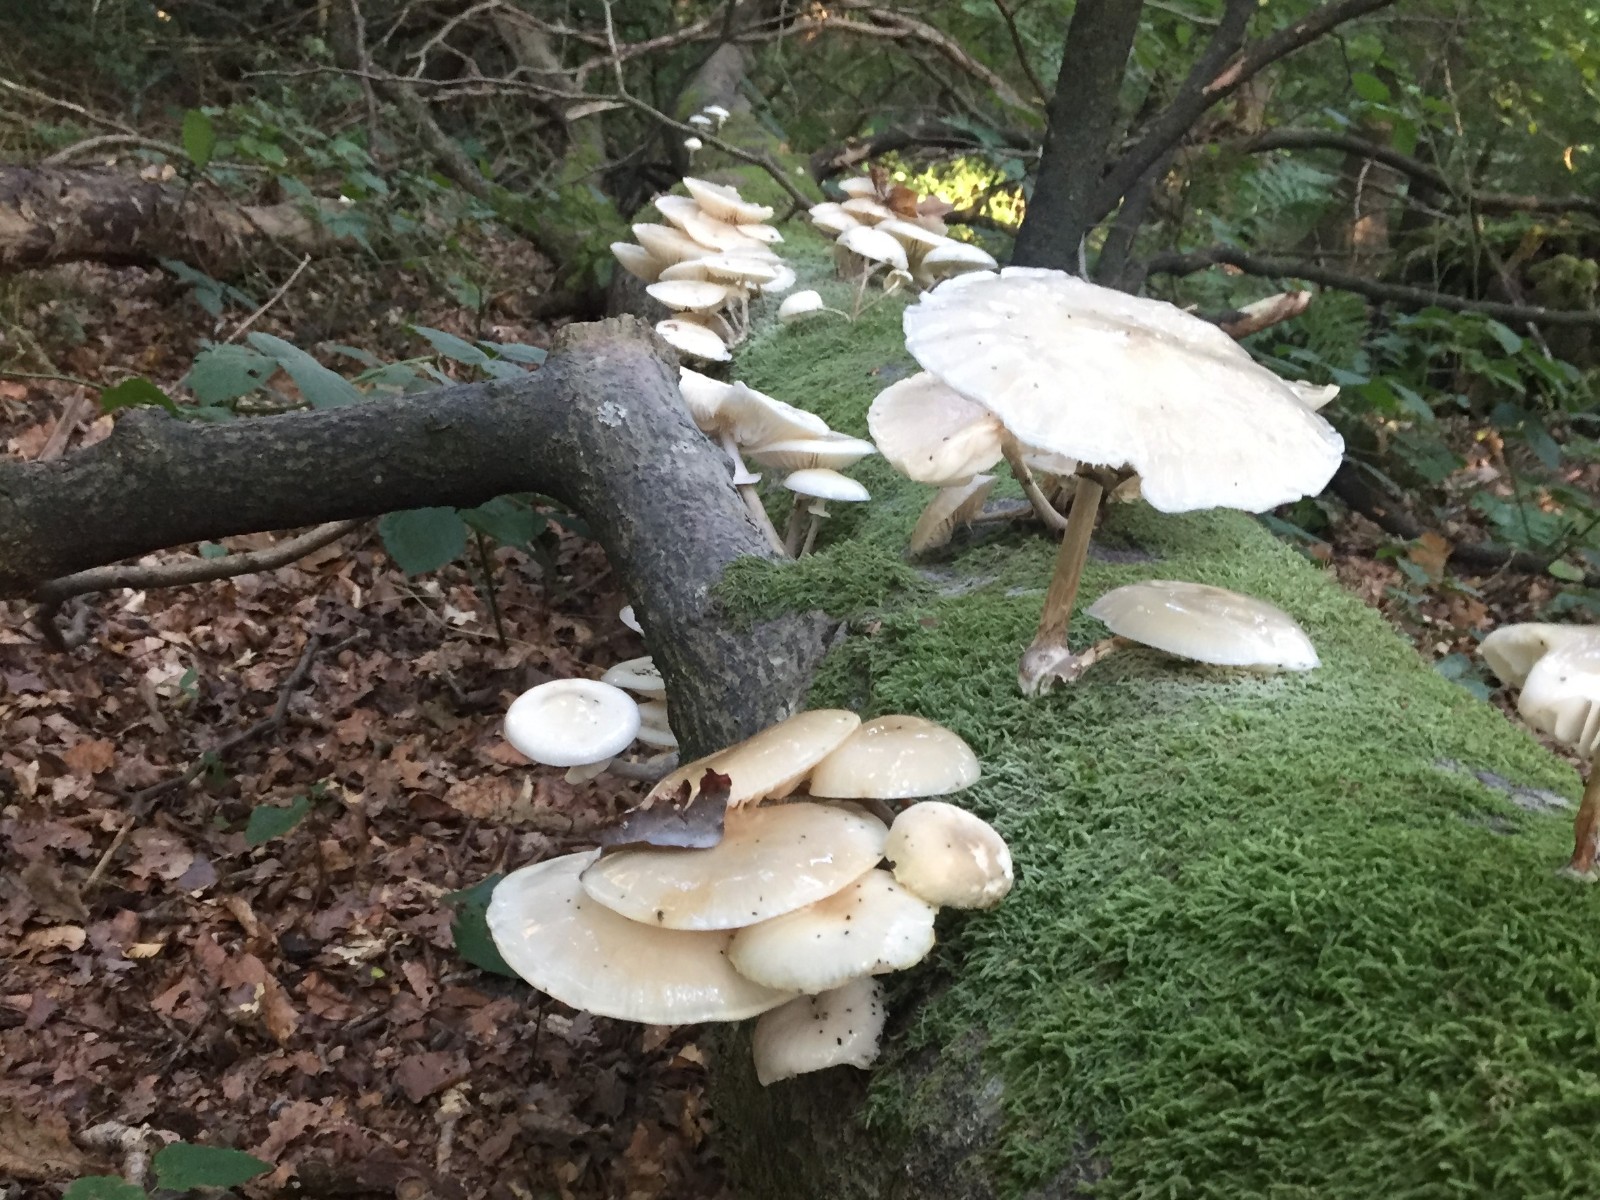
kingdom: Fungi
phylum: Basidiomycota
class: Agaricomycetes
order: Agaricales
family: Physalacriaceae
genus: Mucidula
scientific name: Mucidula mucida
